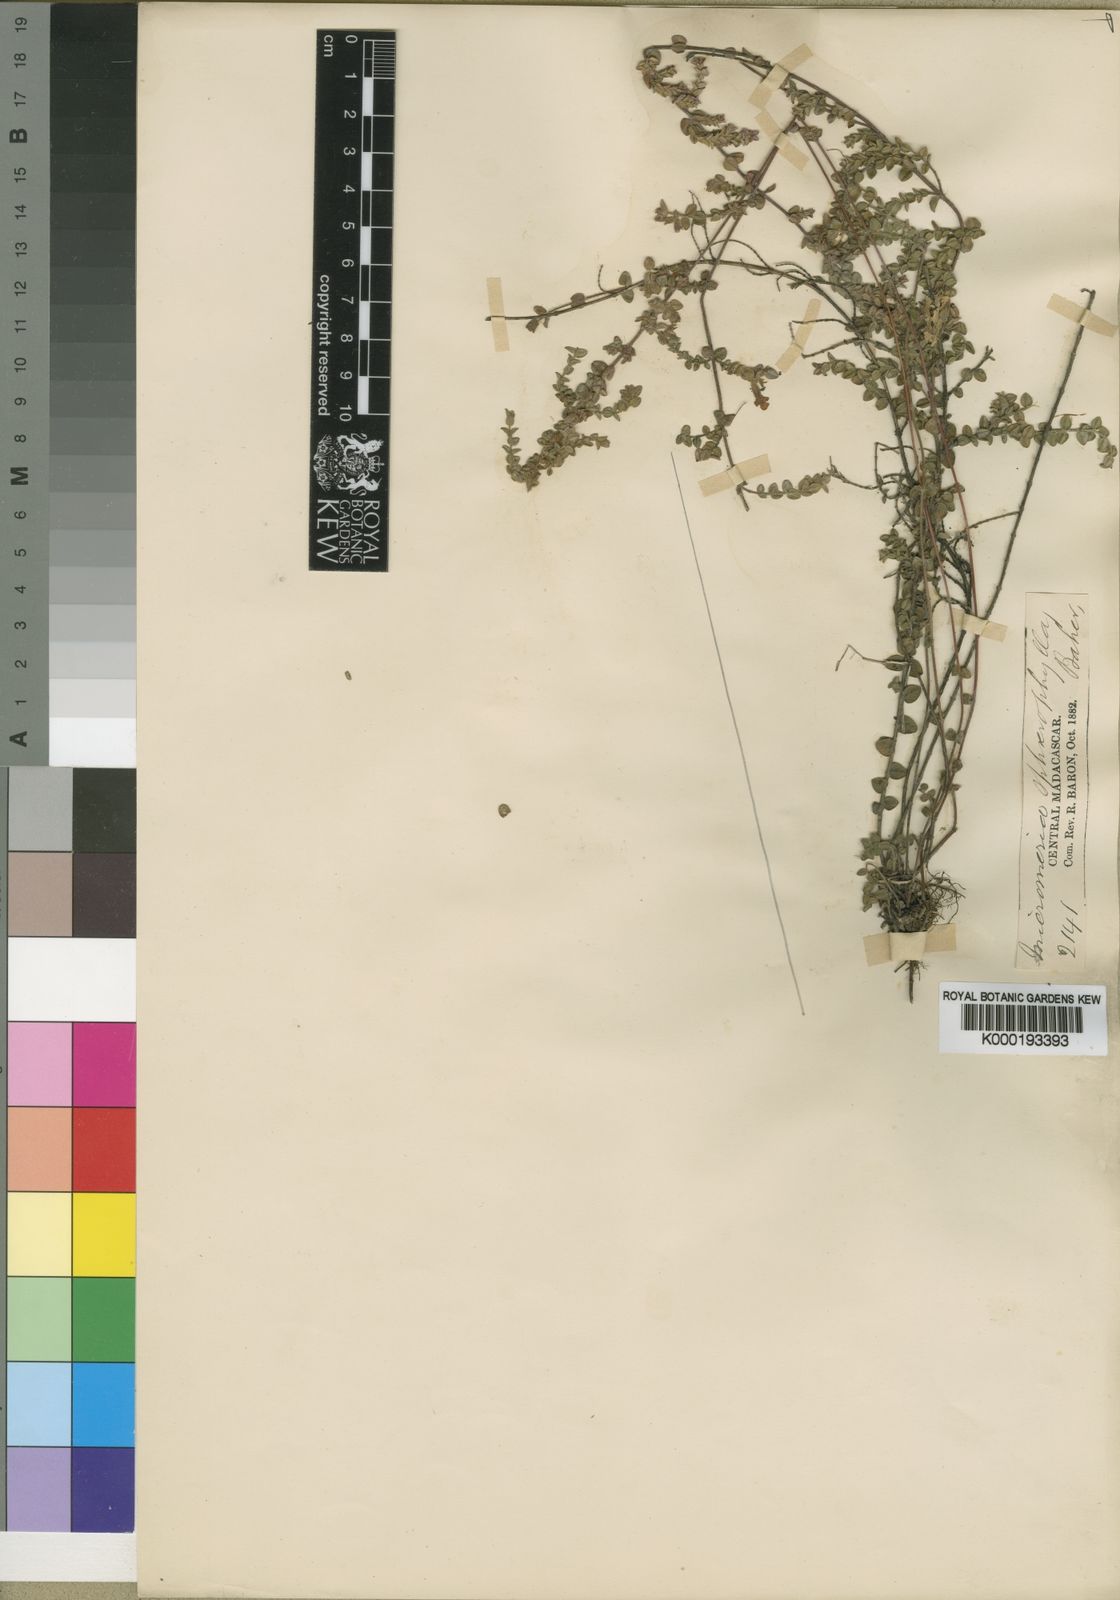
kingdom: Plantae
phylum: Tracheophyta
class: Magnoliopsida
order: Lamiales
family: Lamiaceae
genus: Micromeria
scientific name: Micromeria sphaerophylla
